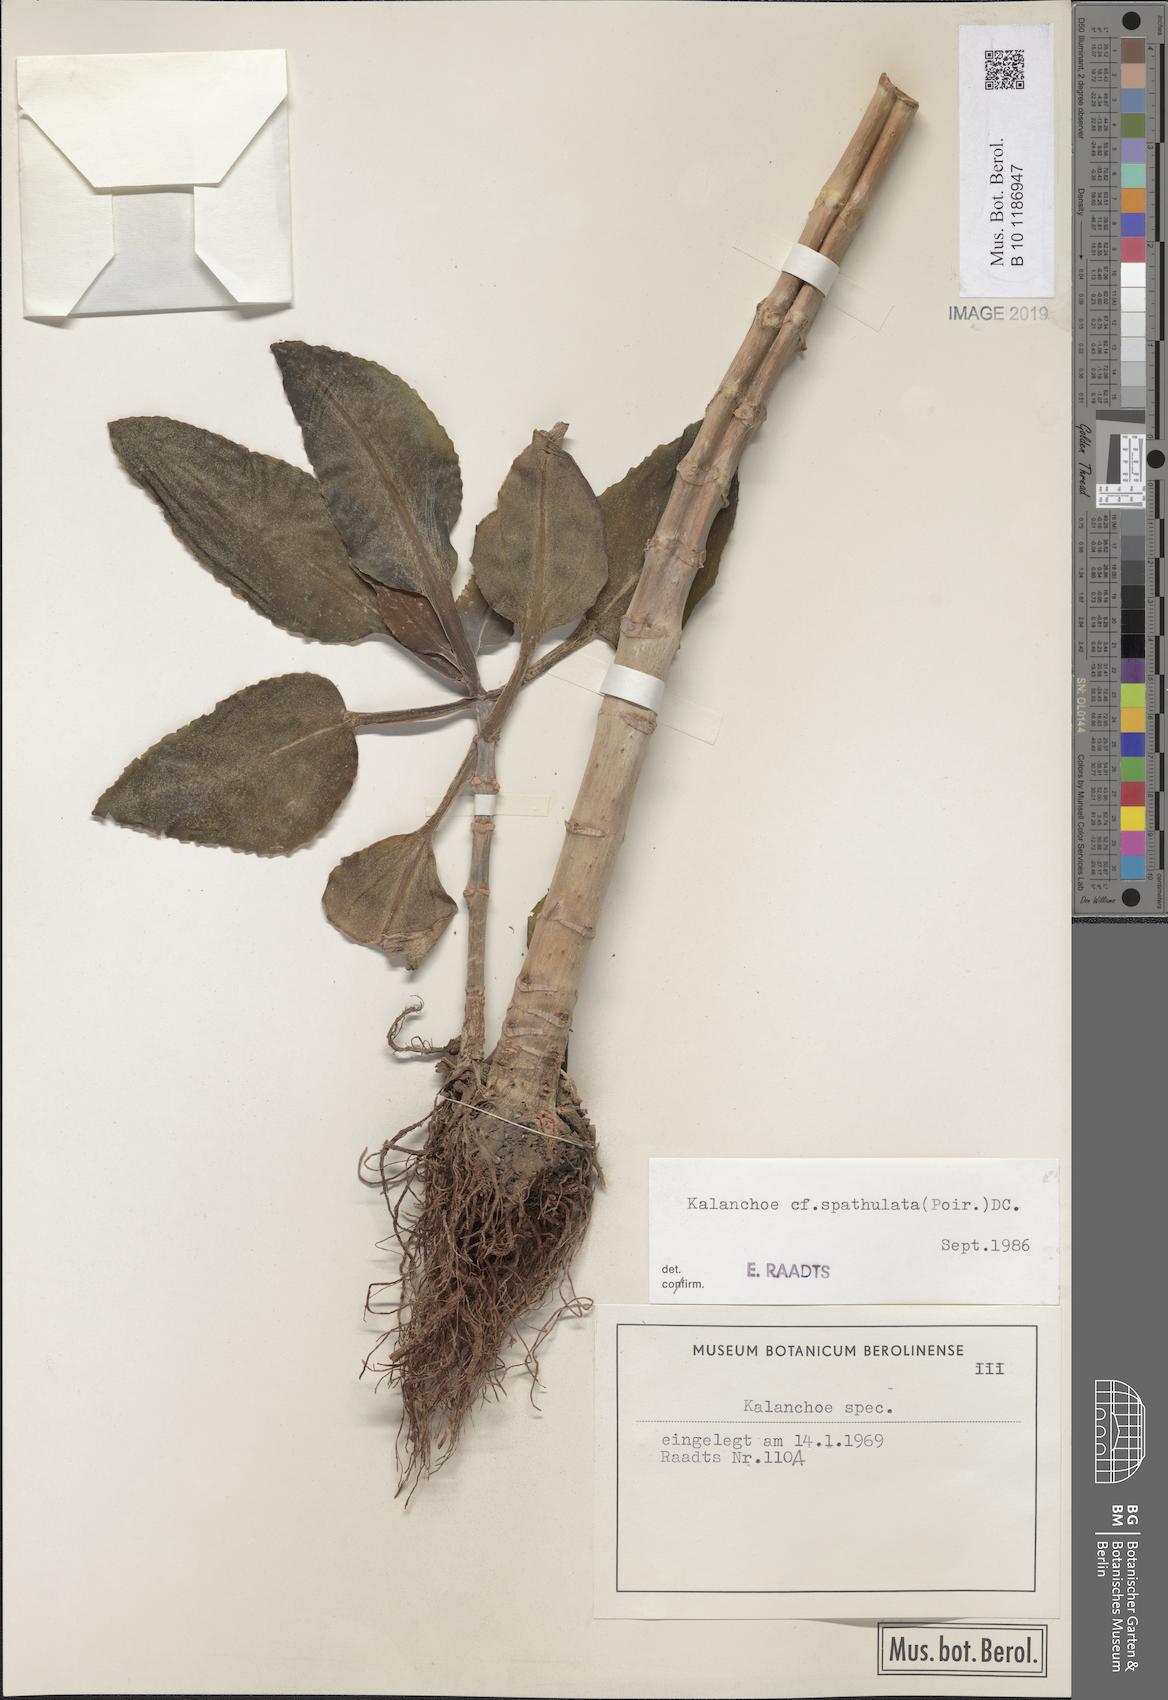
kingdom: Plantae
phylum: Tracheophyta
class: Magnoliopsida
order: Saxifragales
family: Crassulaceae
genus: Kalanchoe
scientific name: Kalanchoe integra
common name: Neverdie
